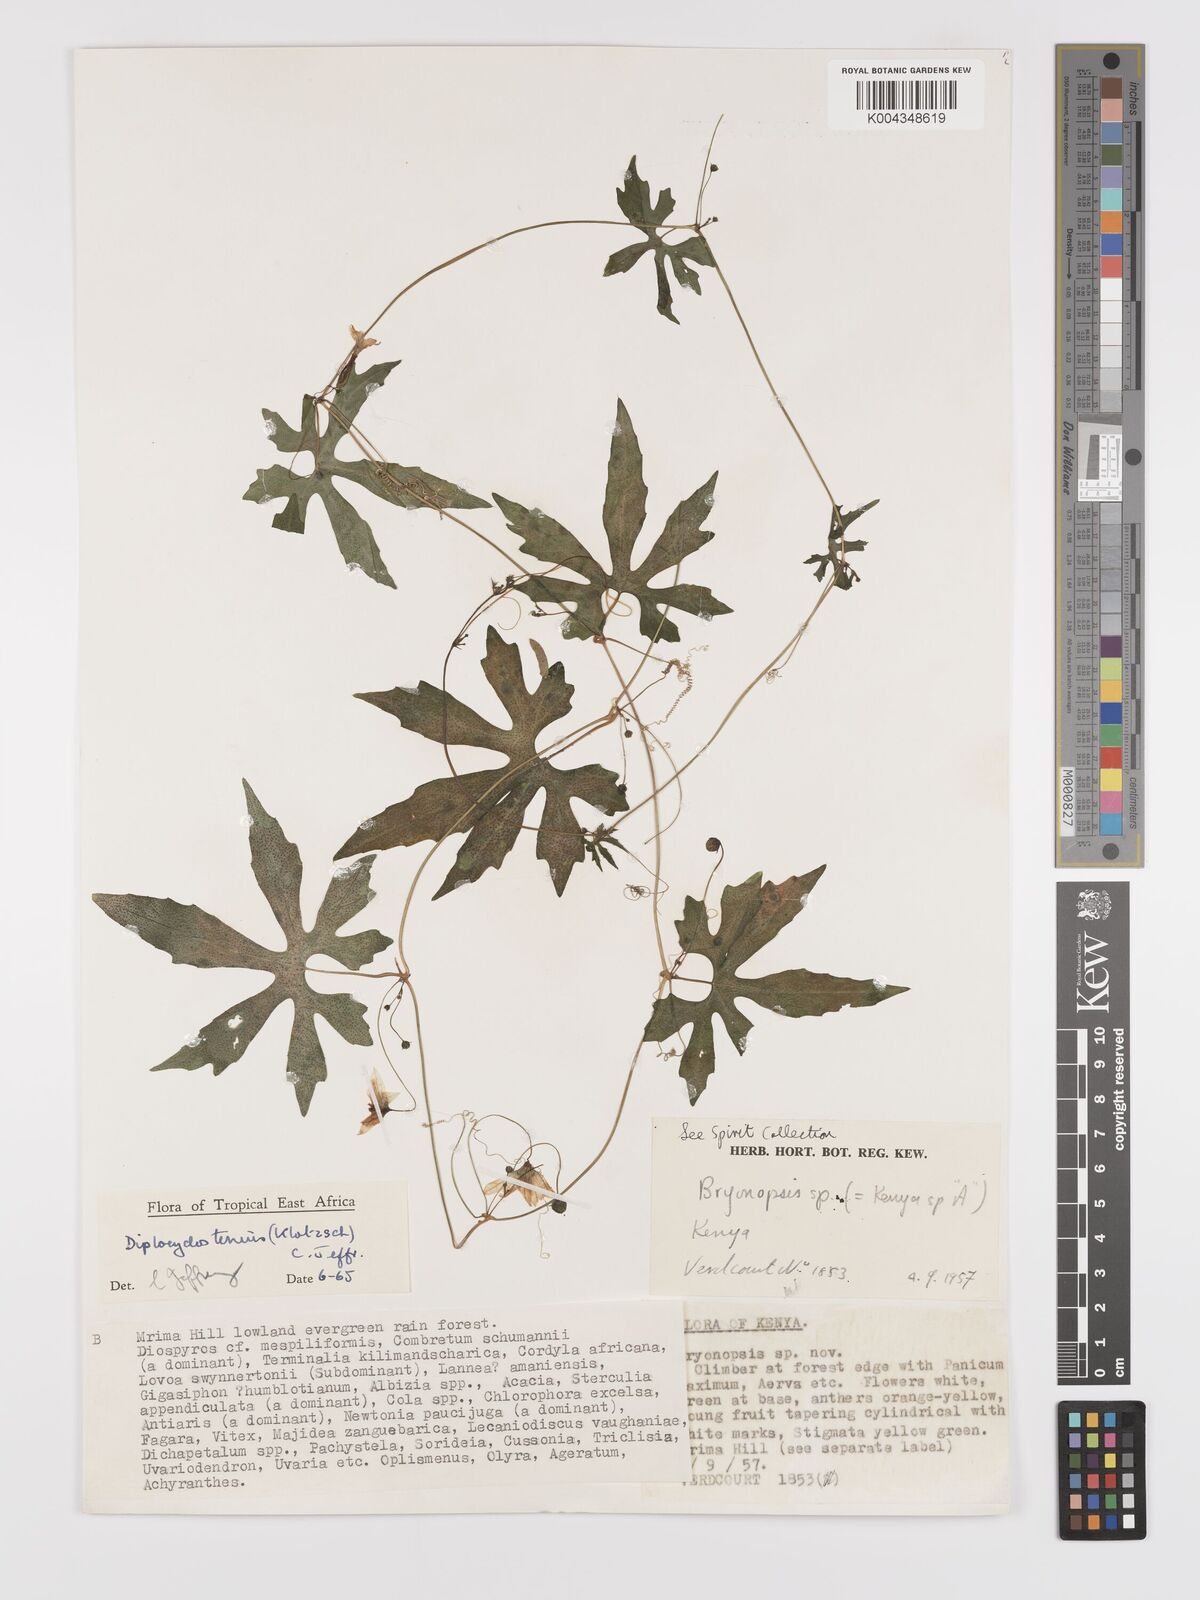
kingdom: Plantae
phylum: Tracheophyta
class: Magnoliopsida
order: Cucurbitales
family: Cucurbitaceae
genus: Diplocyclos
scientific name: Diplocyclos tenuis
